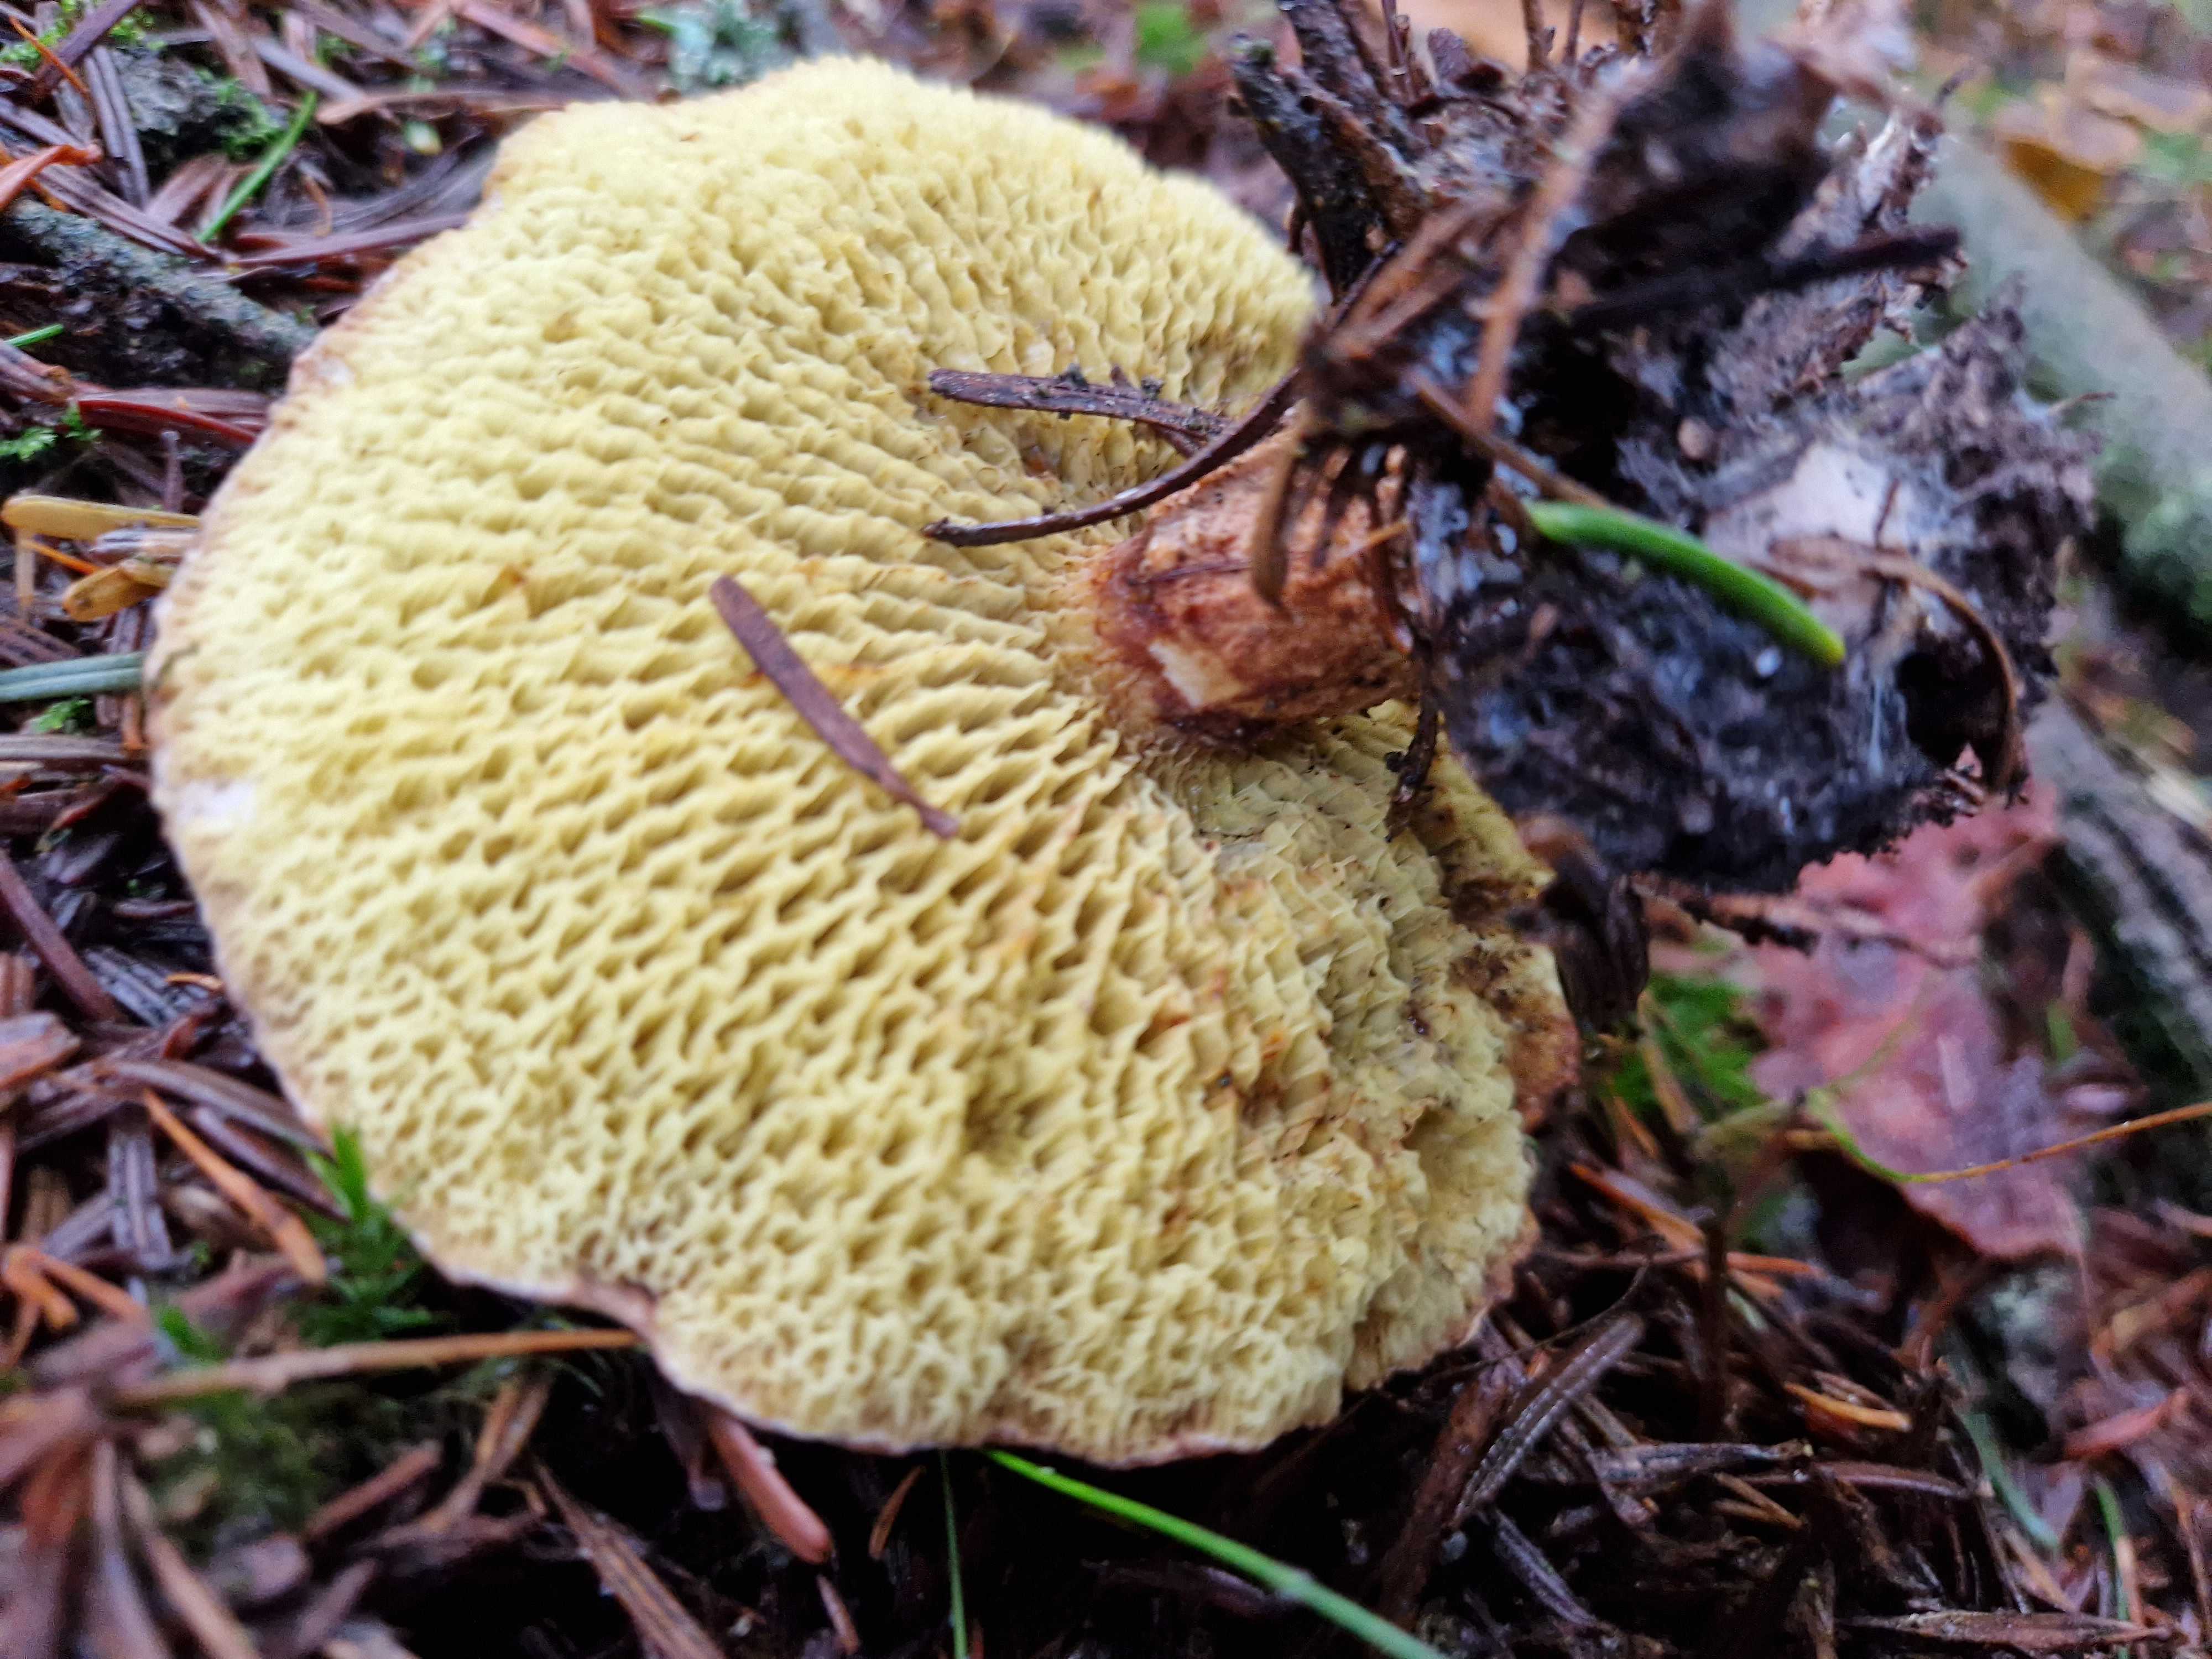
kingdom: Fungi
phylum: Basidiomycota
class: Agaricomycetes
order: Boletales
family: Suillaceae
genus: Suillus
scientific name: Suillus cavipes
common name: hulstokket slimrørhat
